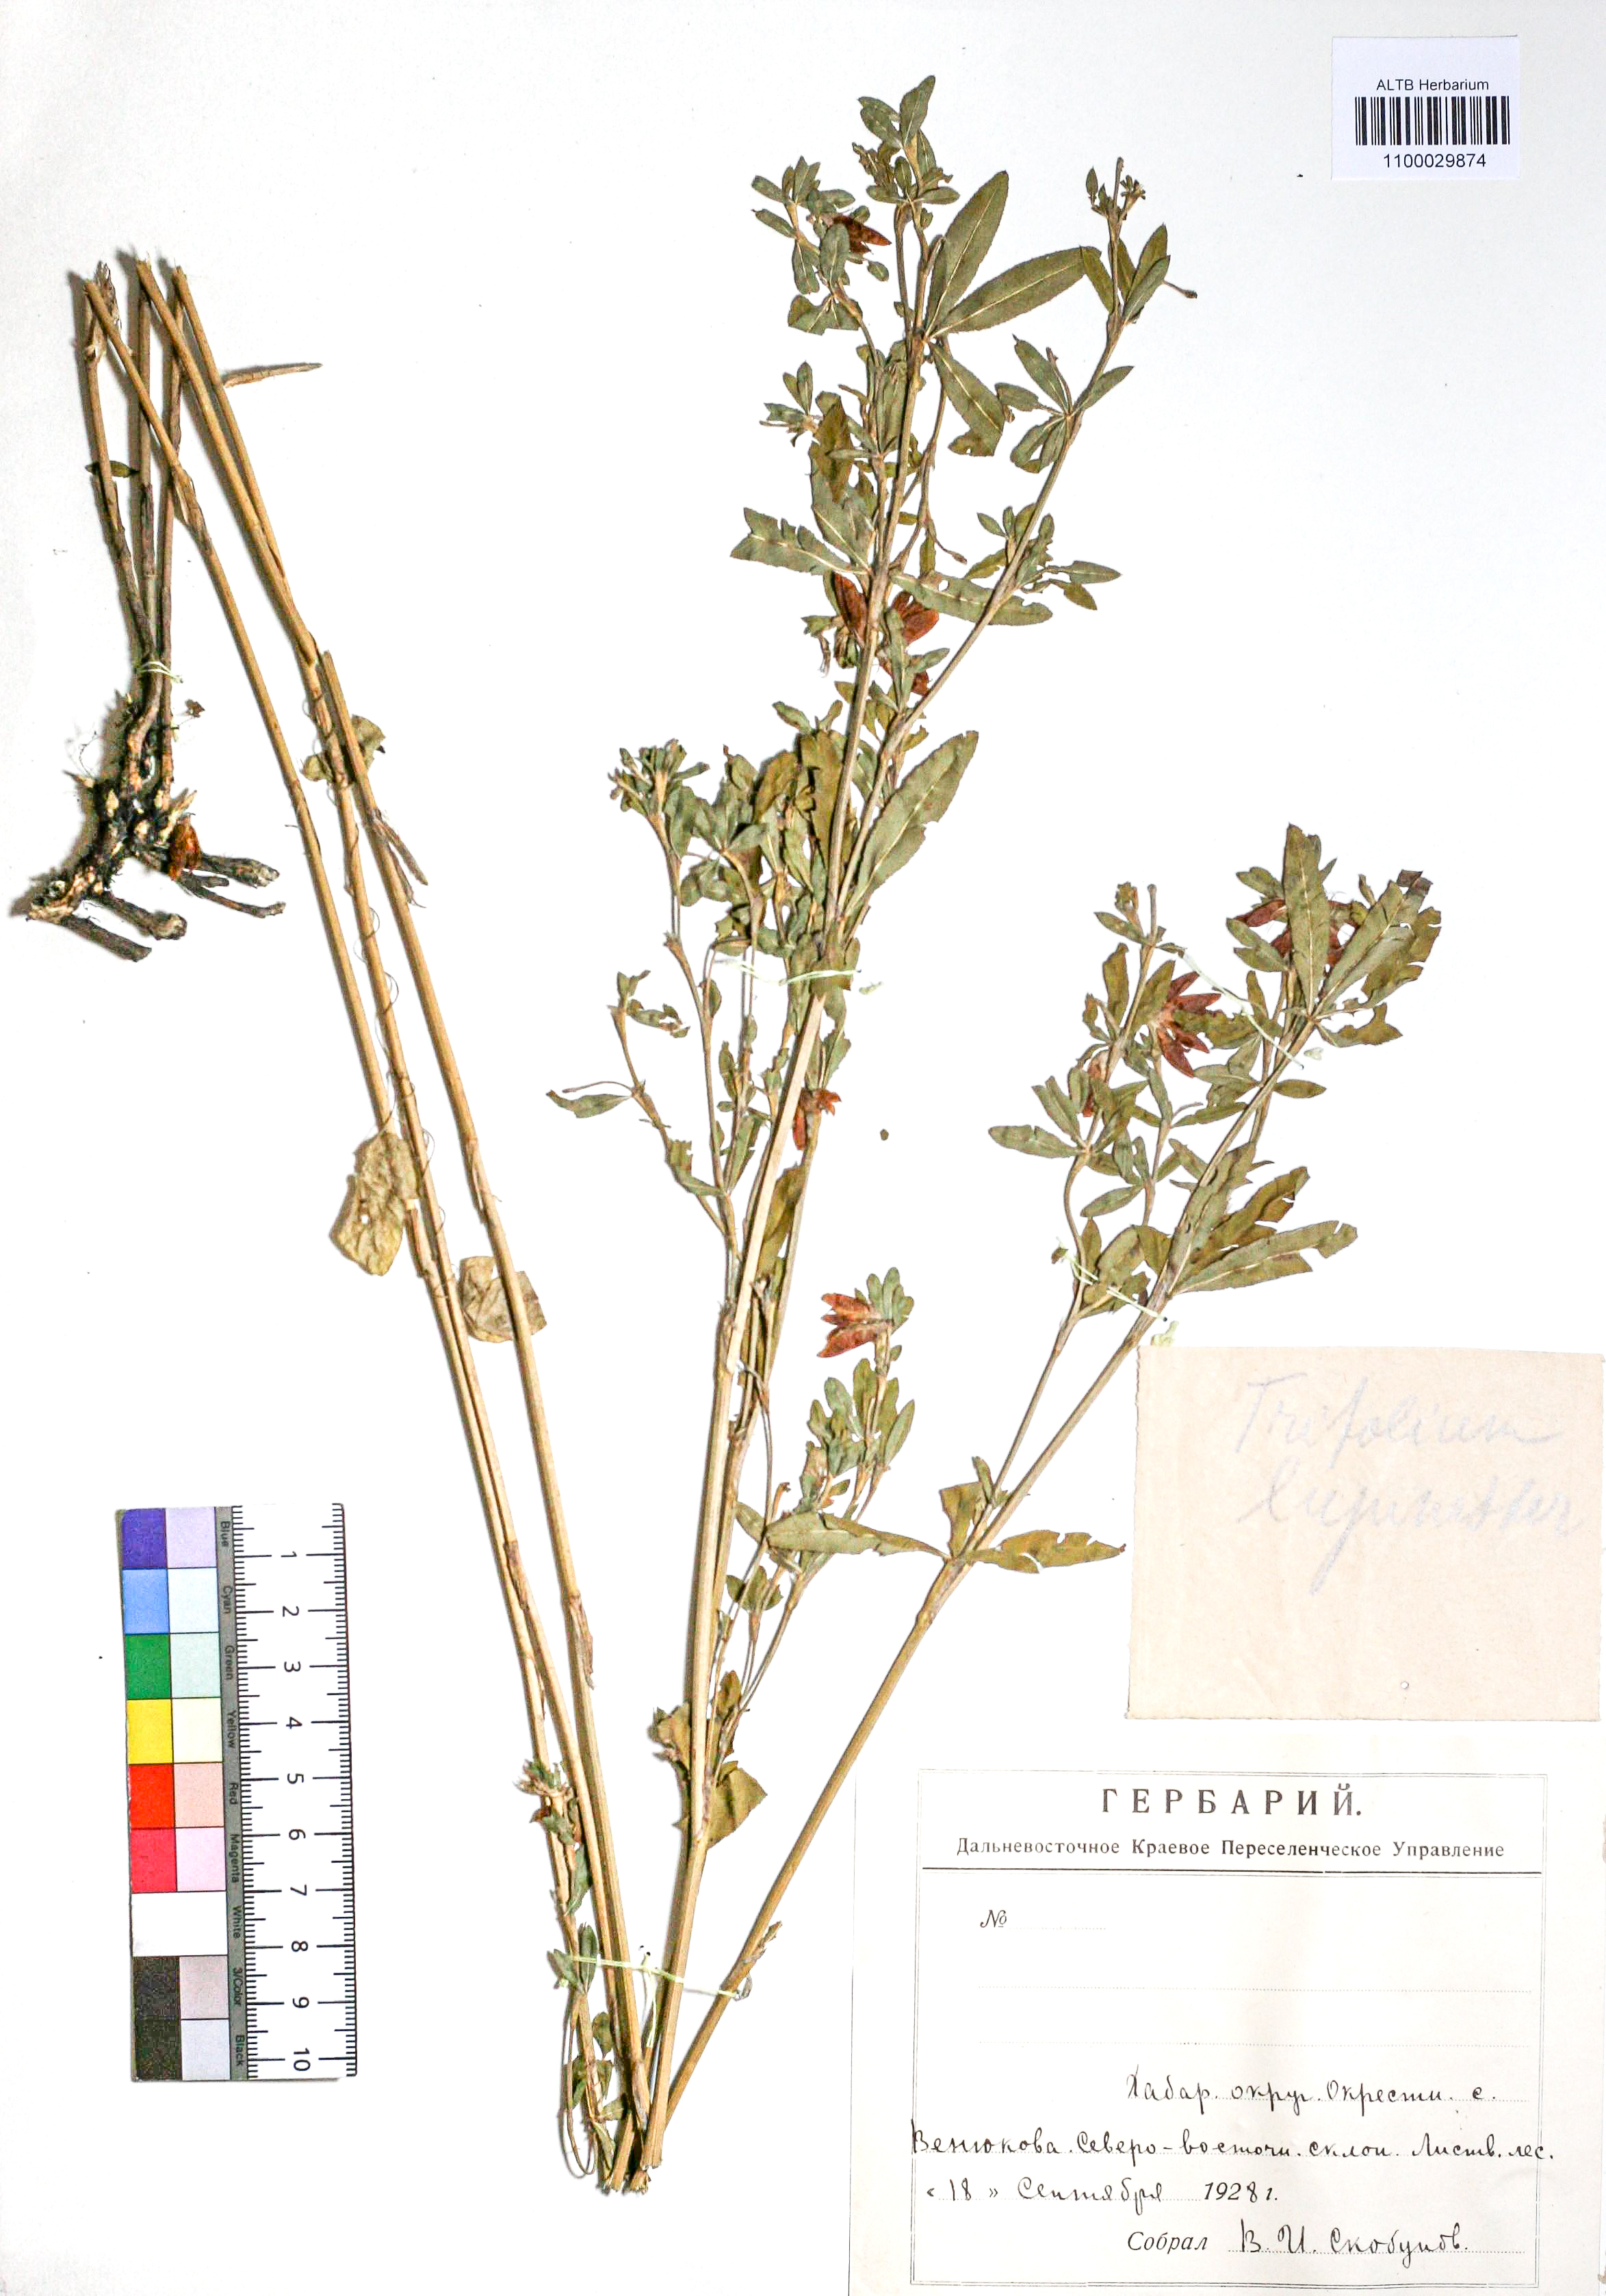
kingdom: Plantae
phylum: Tracheophyta
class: Magnoliopsida
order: Fabales
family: Fabaceae
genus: Trifolium
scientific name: Trifolium lupinaster
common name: Lupine clover
